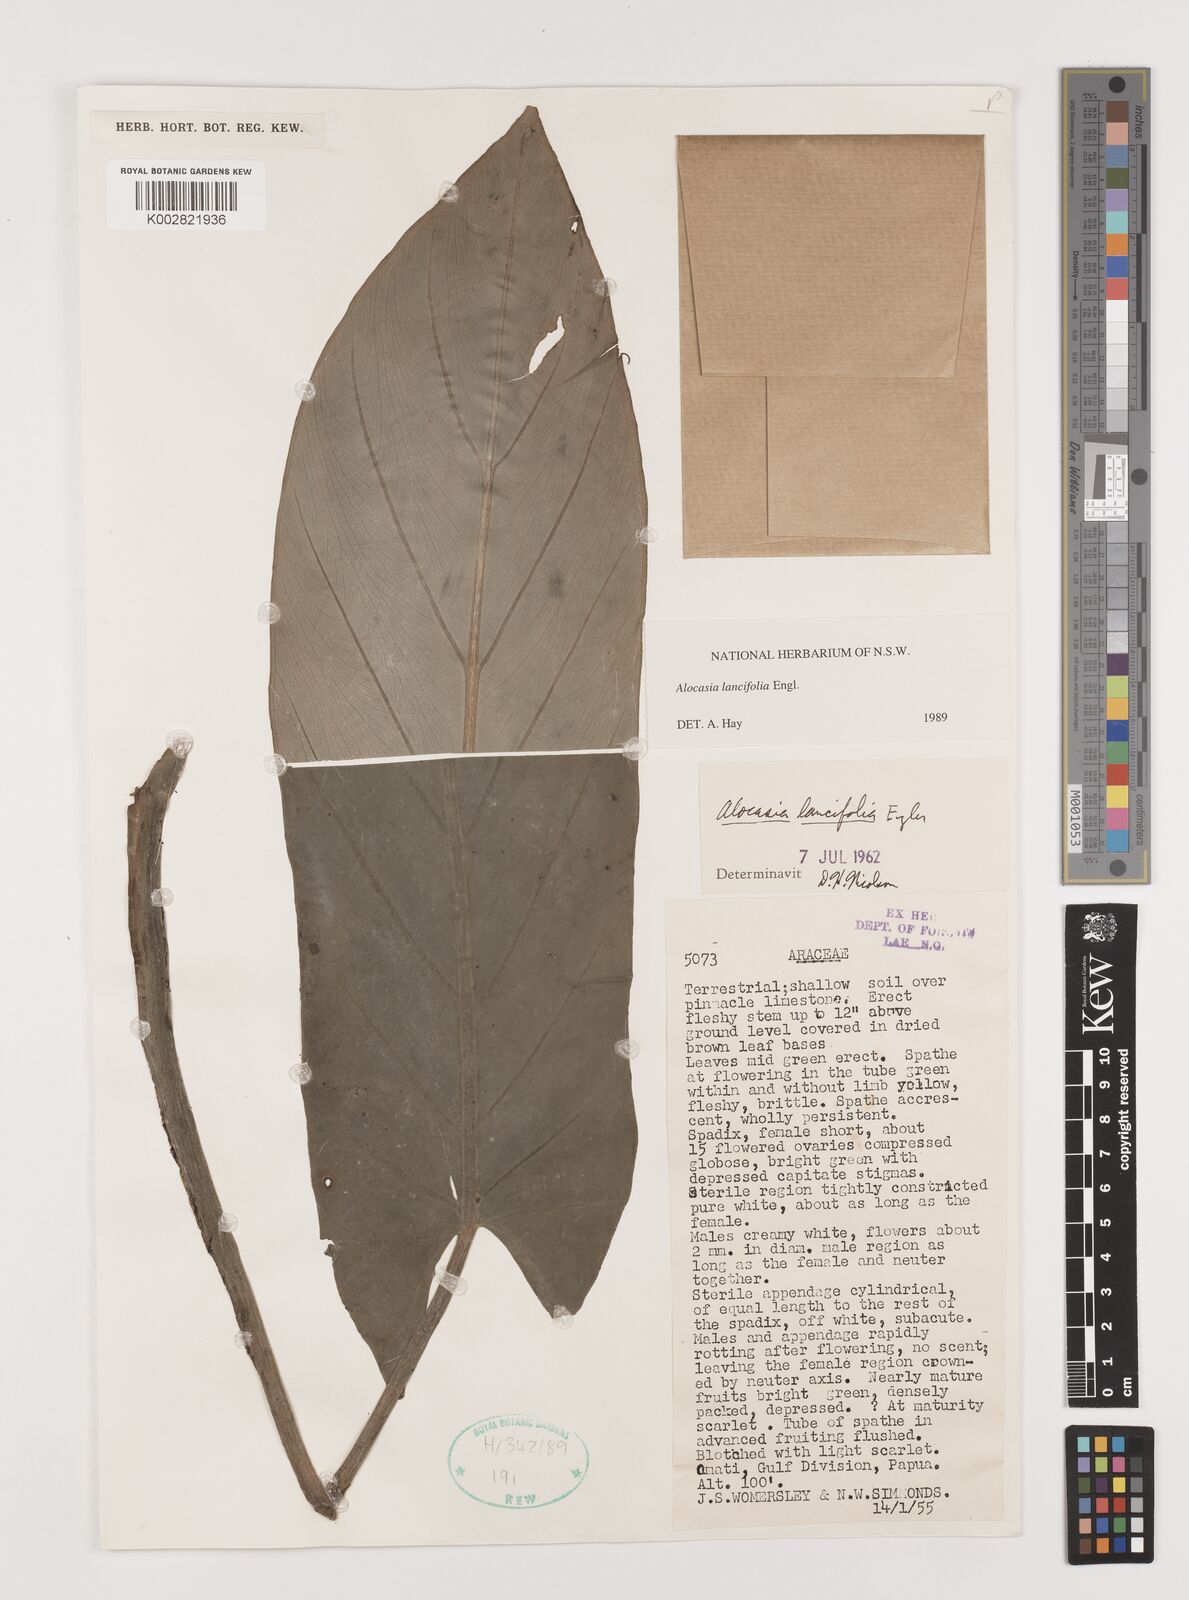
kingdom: Plantae
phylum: Tracheophyta
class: Liliopsida
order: Alismatales
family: Araceae
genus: Alocasia
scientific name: Alocasia lancifolia
